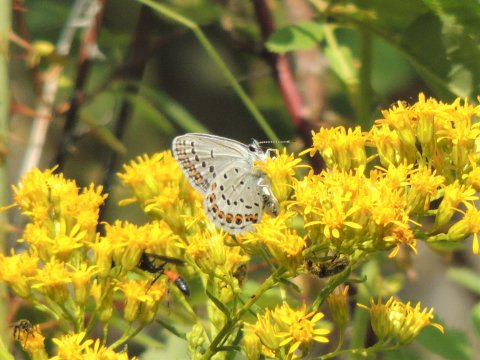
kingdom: Animalia
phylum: Arthropoda
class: Insecta
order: Lepidoptera
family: Lycaenidae
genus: Lycaeides
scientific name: Lycaeides melissa
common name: Melissa Blue
